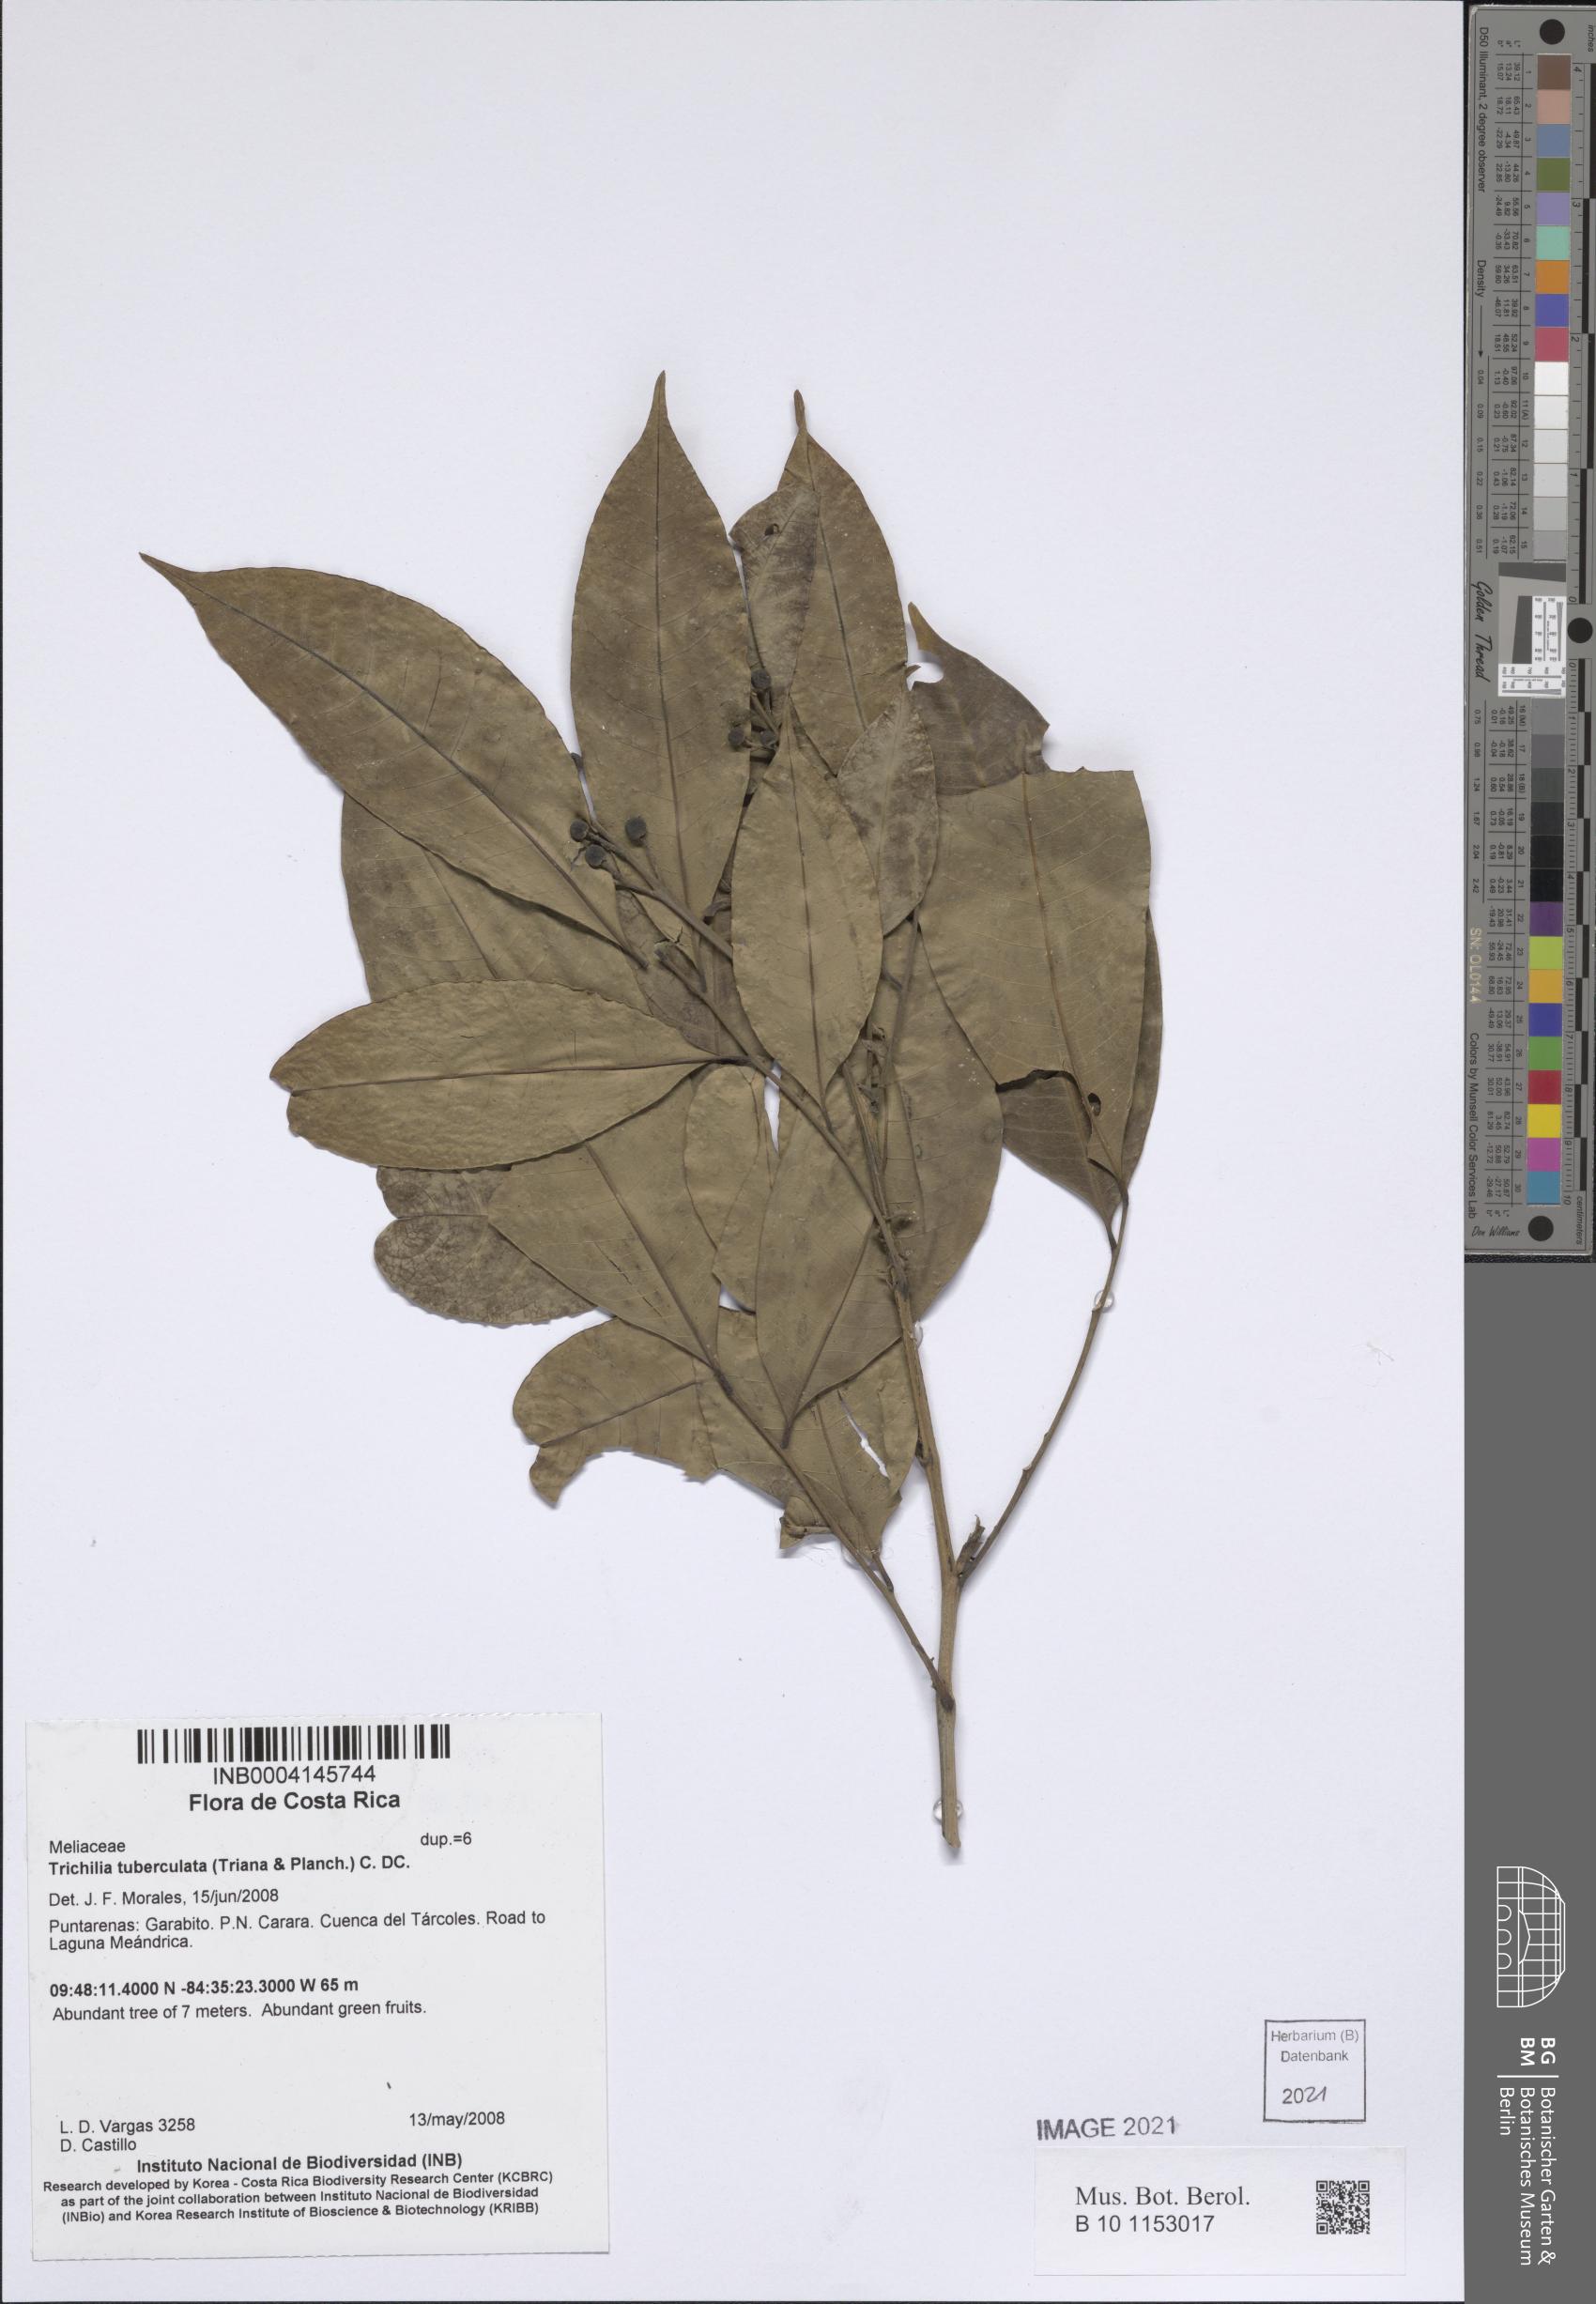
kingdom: Plantae
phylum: Tracheophyta
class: Magnoliopsida
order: Sapindales
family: Meliaceae
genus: Trichilia
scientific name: Trichilia tuberculata
